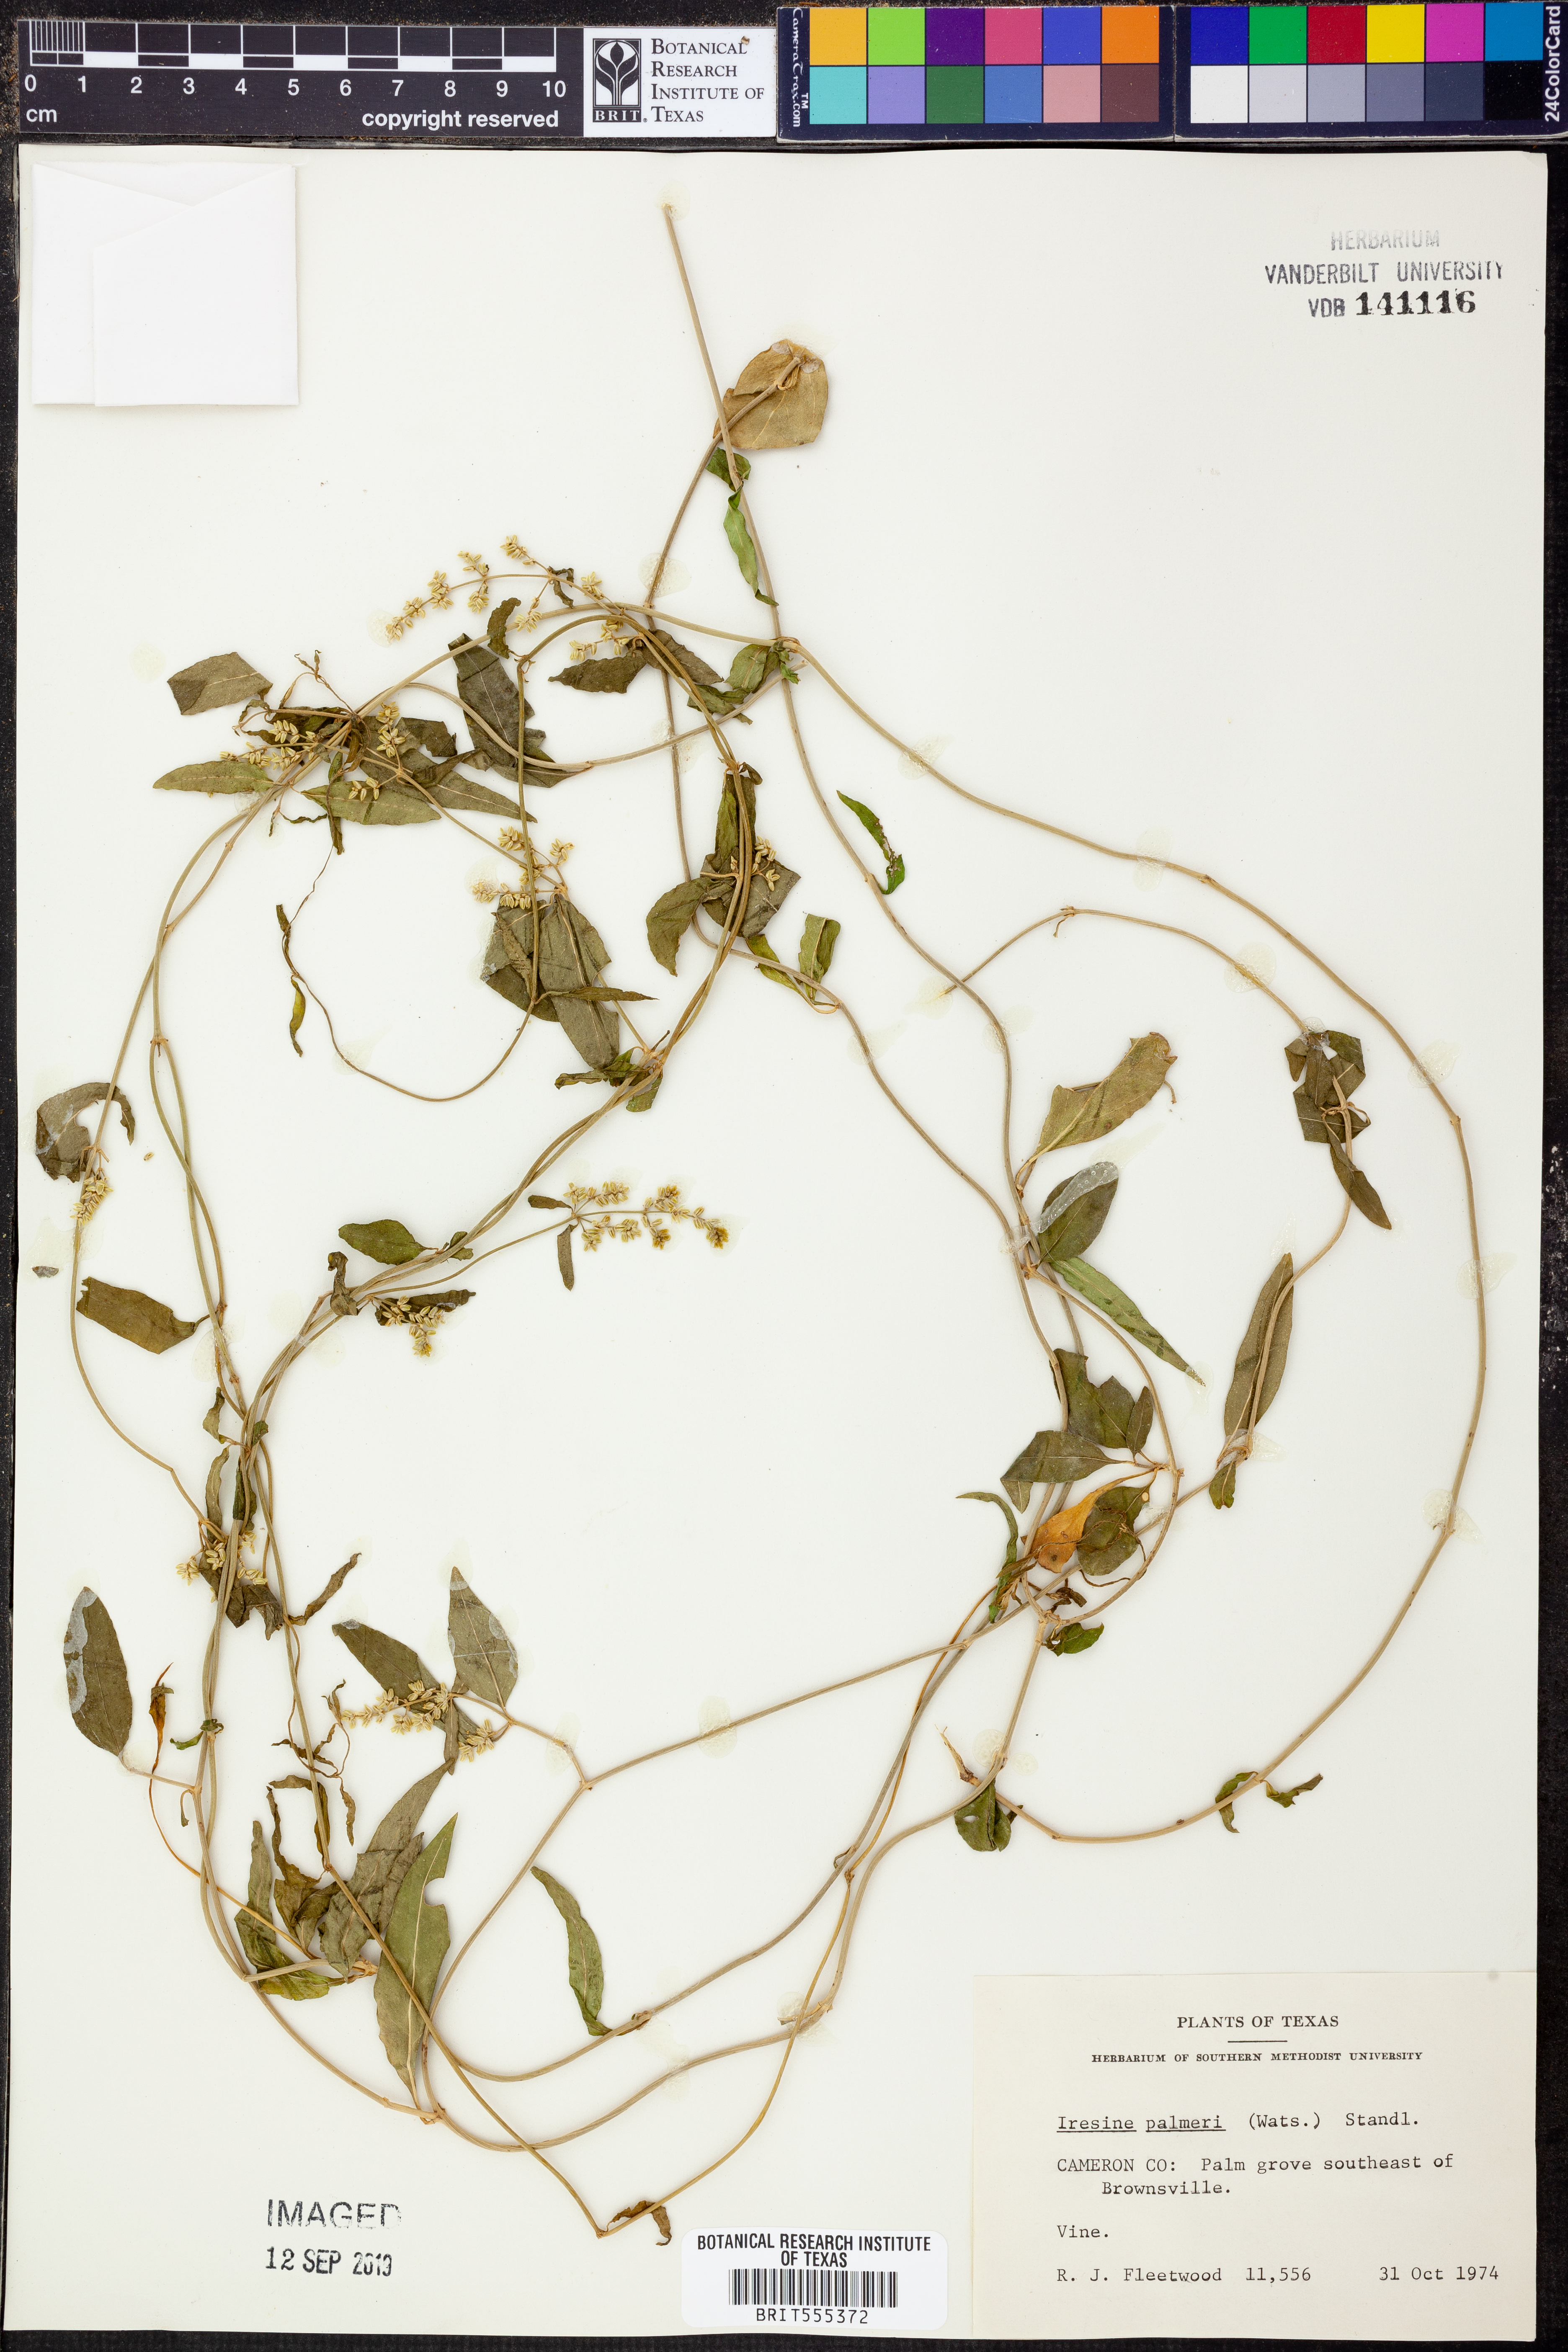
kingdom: Plantae
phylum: Tracheophyta
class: Magnoliopsida
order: Caryophyllales
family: Amaranthaceae
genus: Iresine
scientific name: Iresine palmeri
